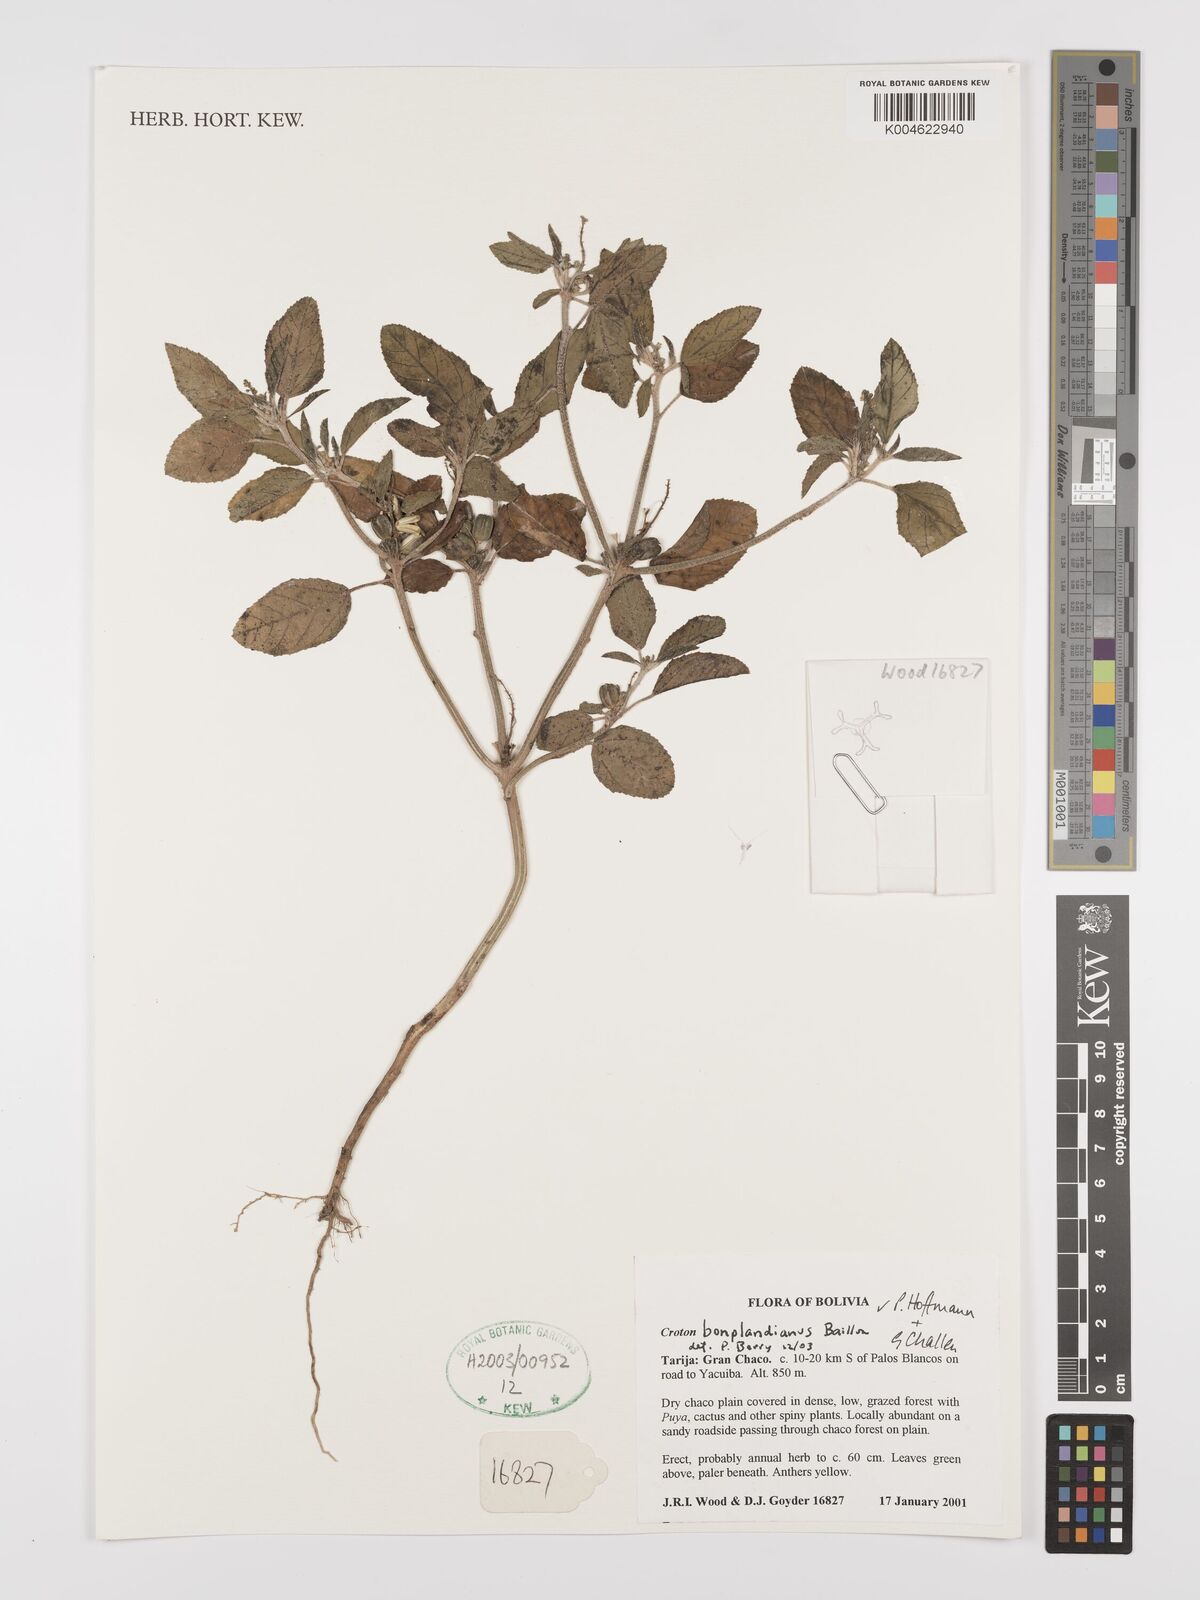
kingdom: Plantae
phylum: Tracheophyta
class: Magnoliopsida
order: Malpighiales
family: Euphorbiaceae
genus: Croton
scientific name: Croton bonplandianus
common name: Bonpland's croton
